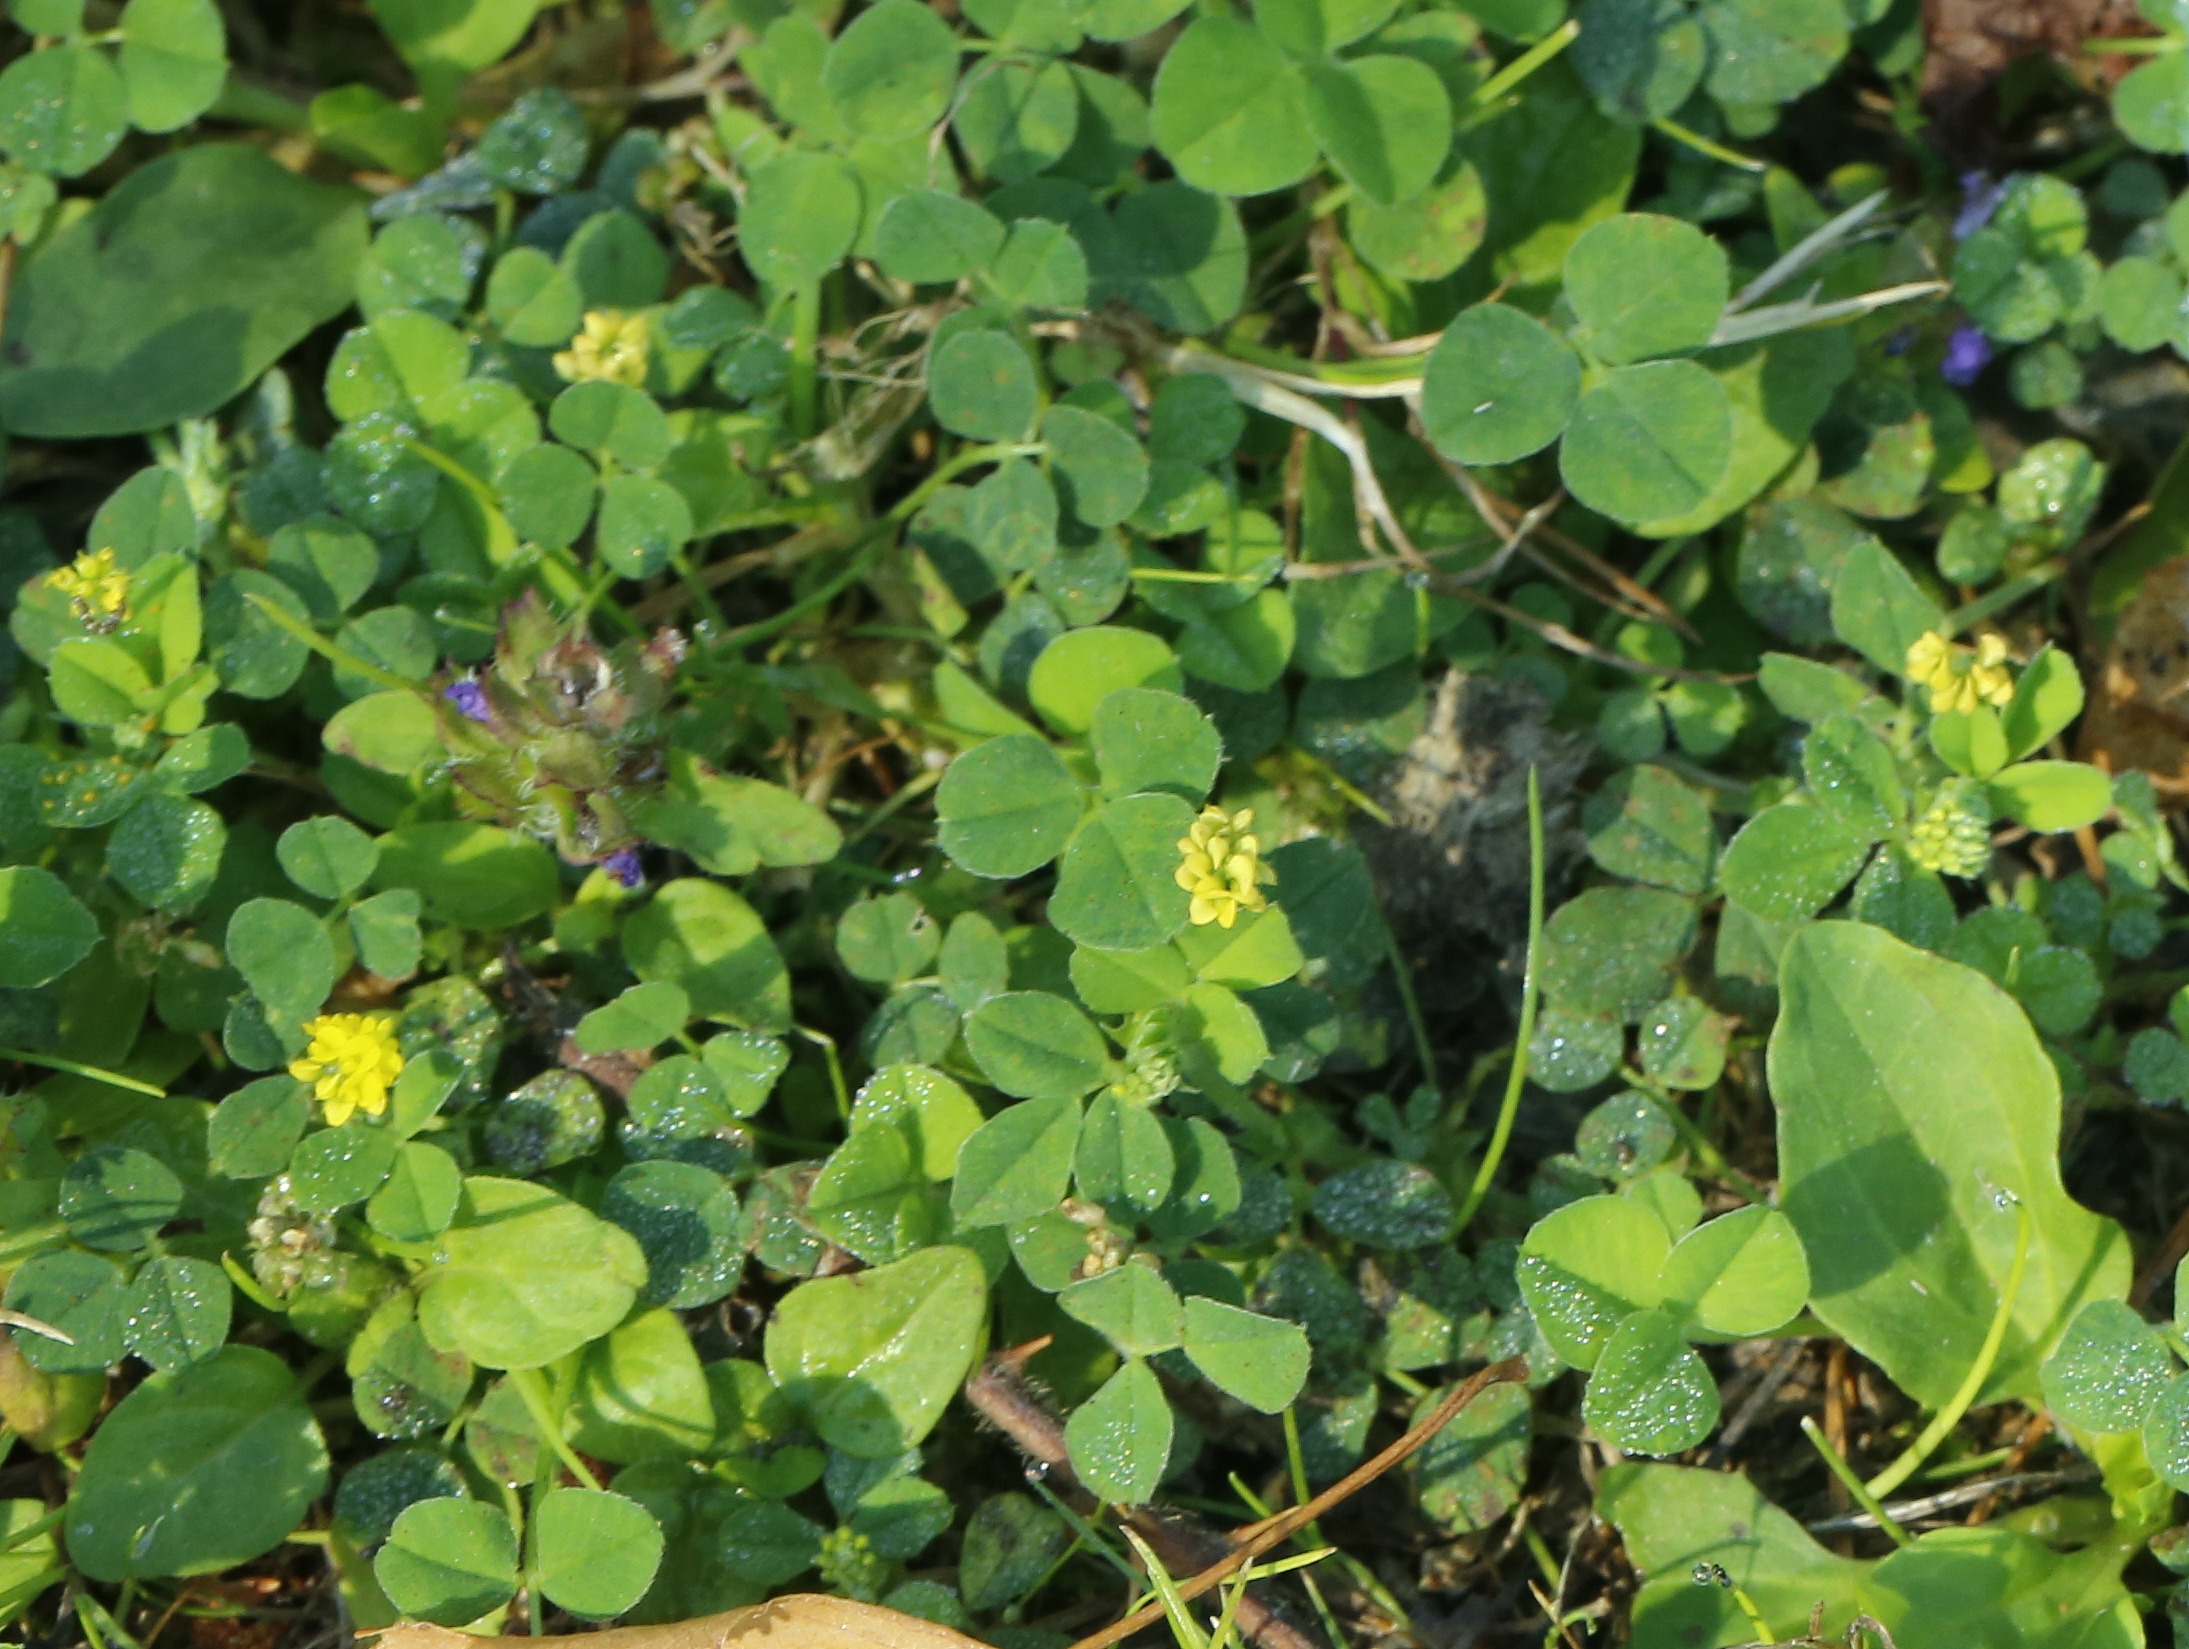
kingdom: Plantae
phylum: Tracheophyta
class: Magnoliopsida
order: Fabales
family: Fabaceae
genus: Medicago
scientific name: Medicago lupulina
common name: Humle-sneglebælg
